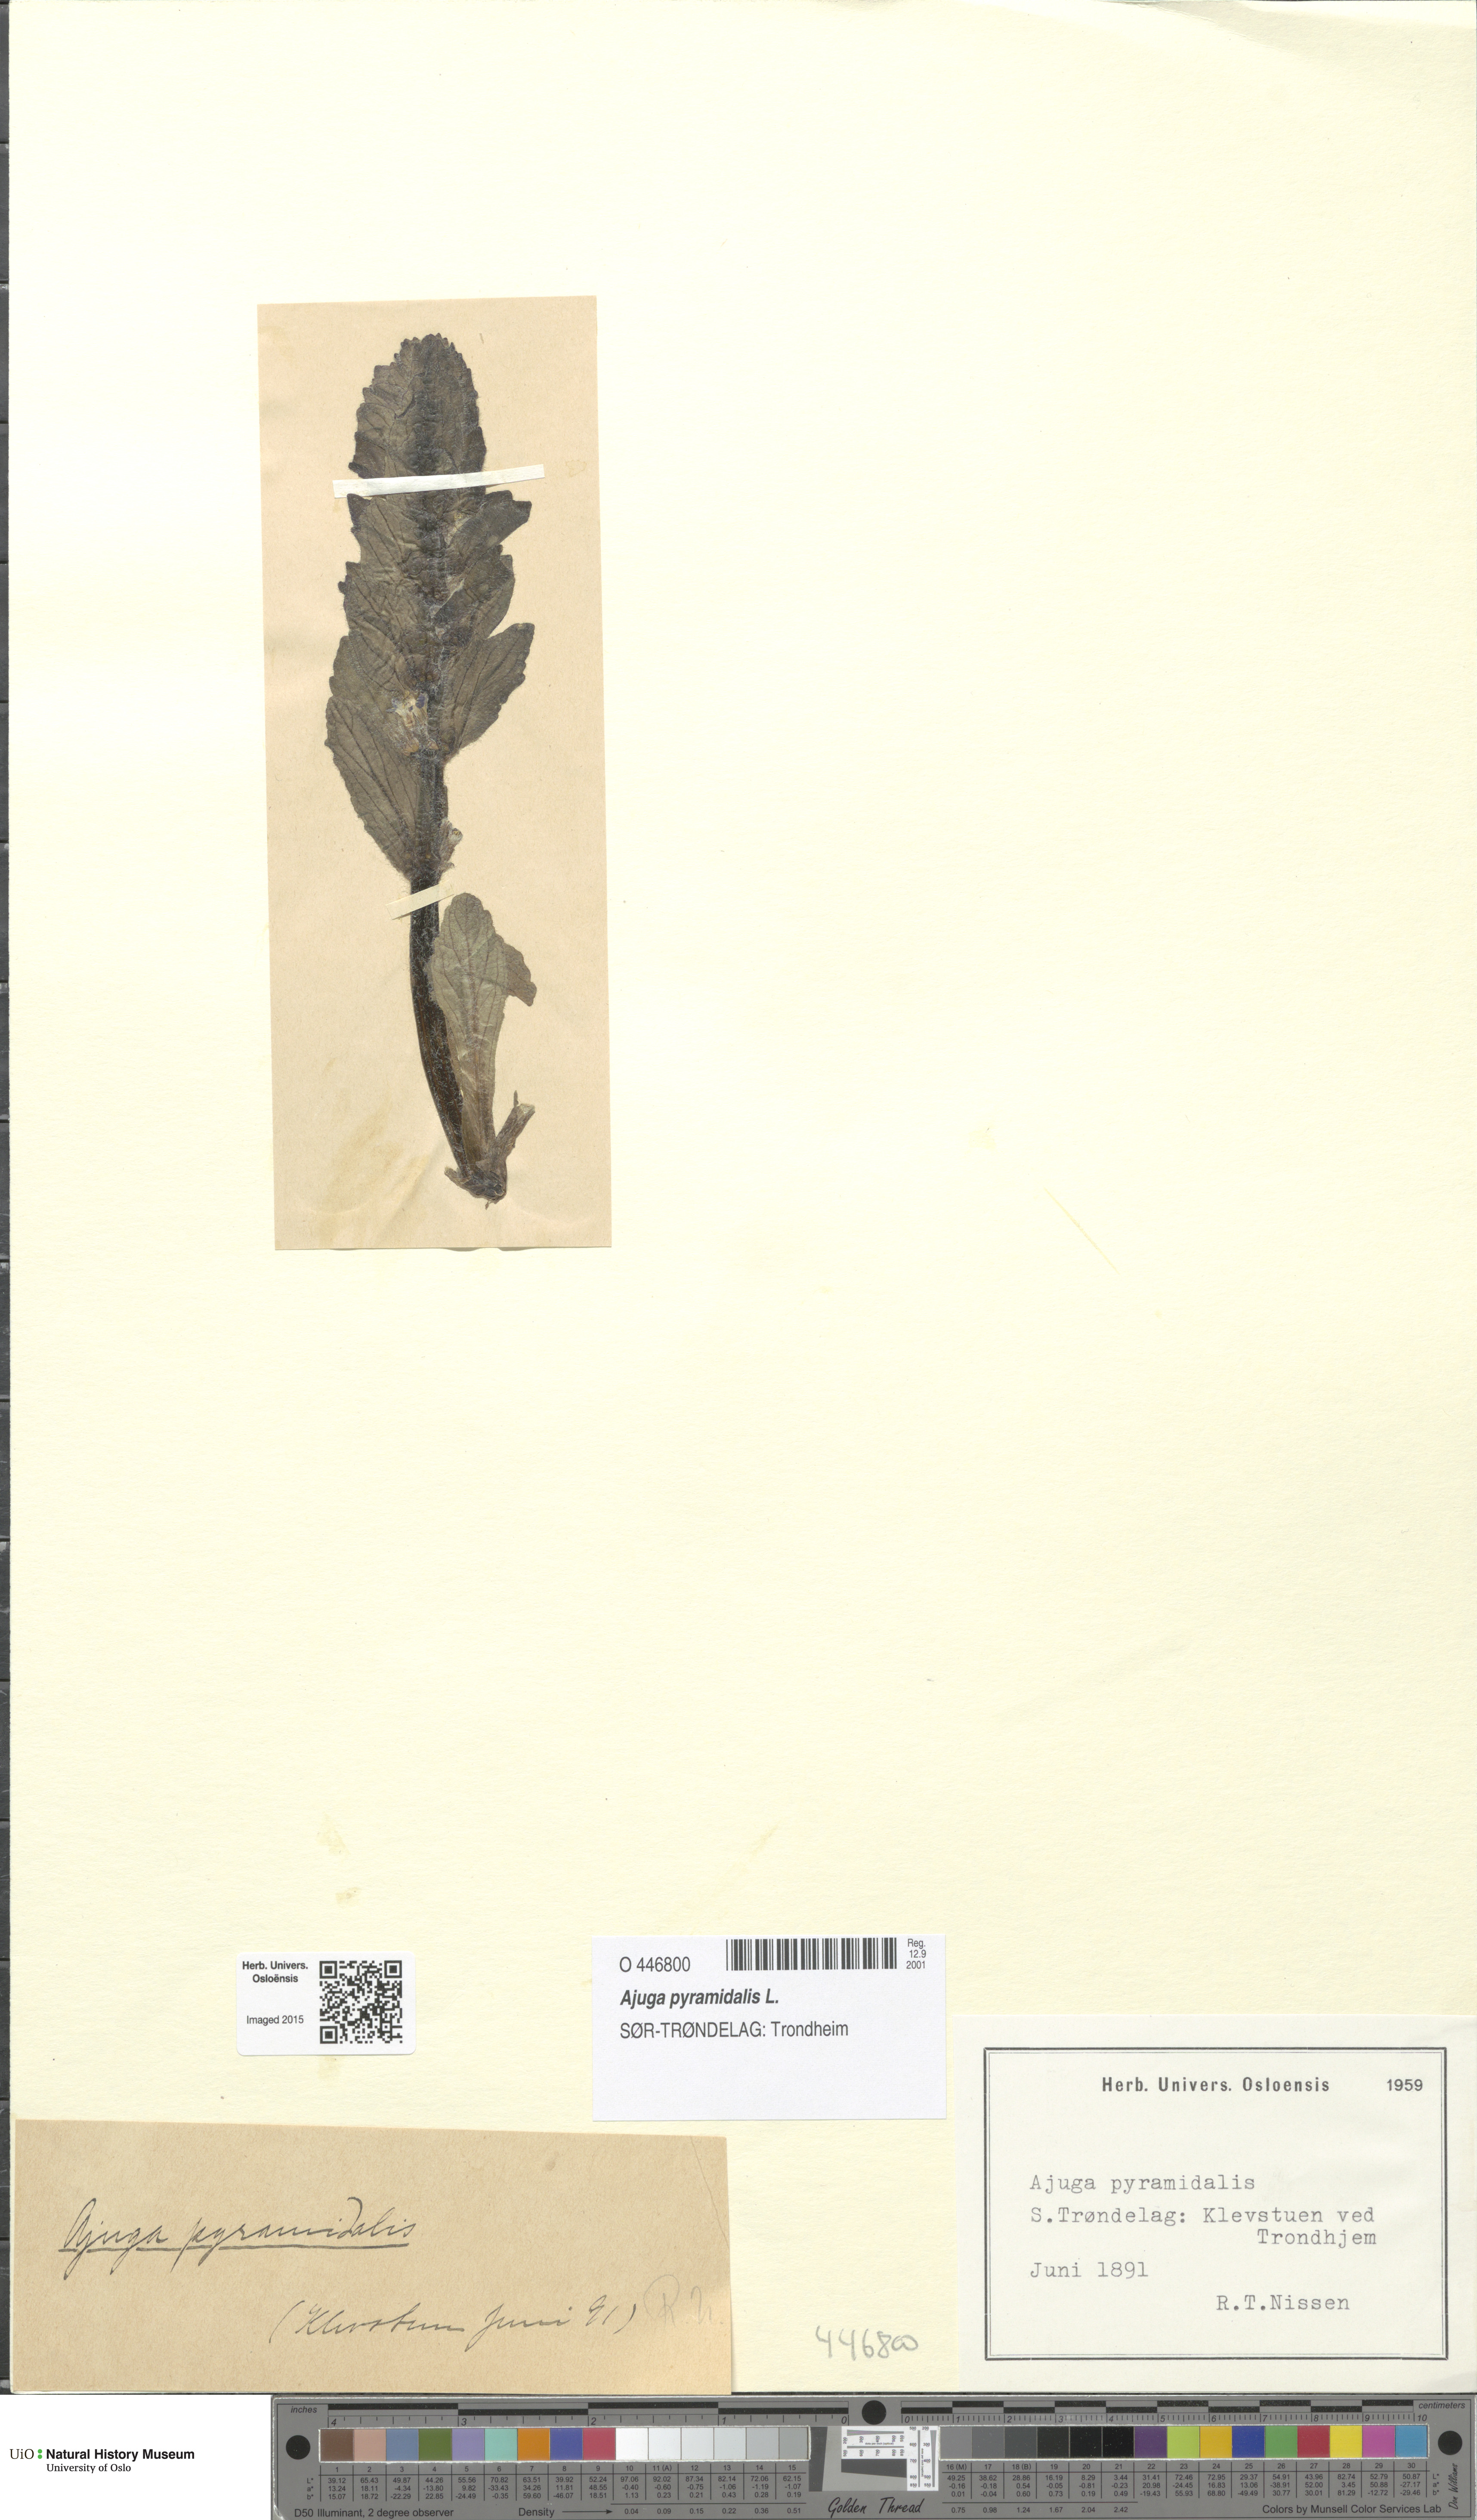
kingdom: Plantae
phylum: Tracheophyta
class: Magnoliopsida
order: Lamiales
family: Lamiaceae
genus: Ajuga
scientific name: Ajuga pyramidalis
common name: Pyramid bugle
